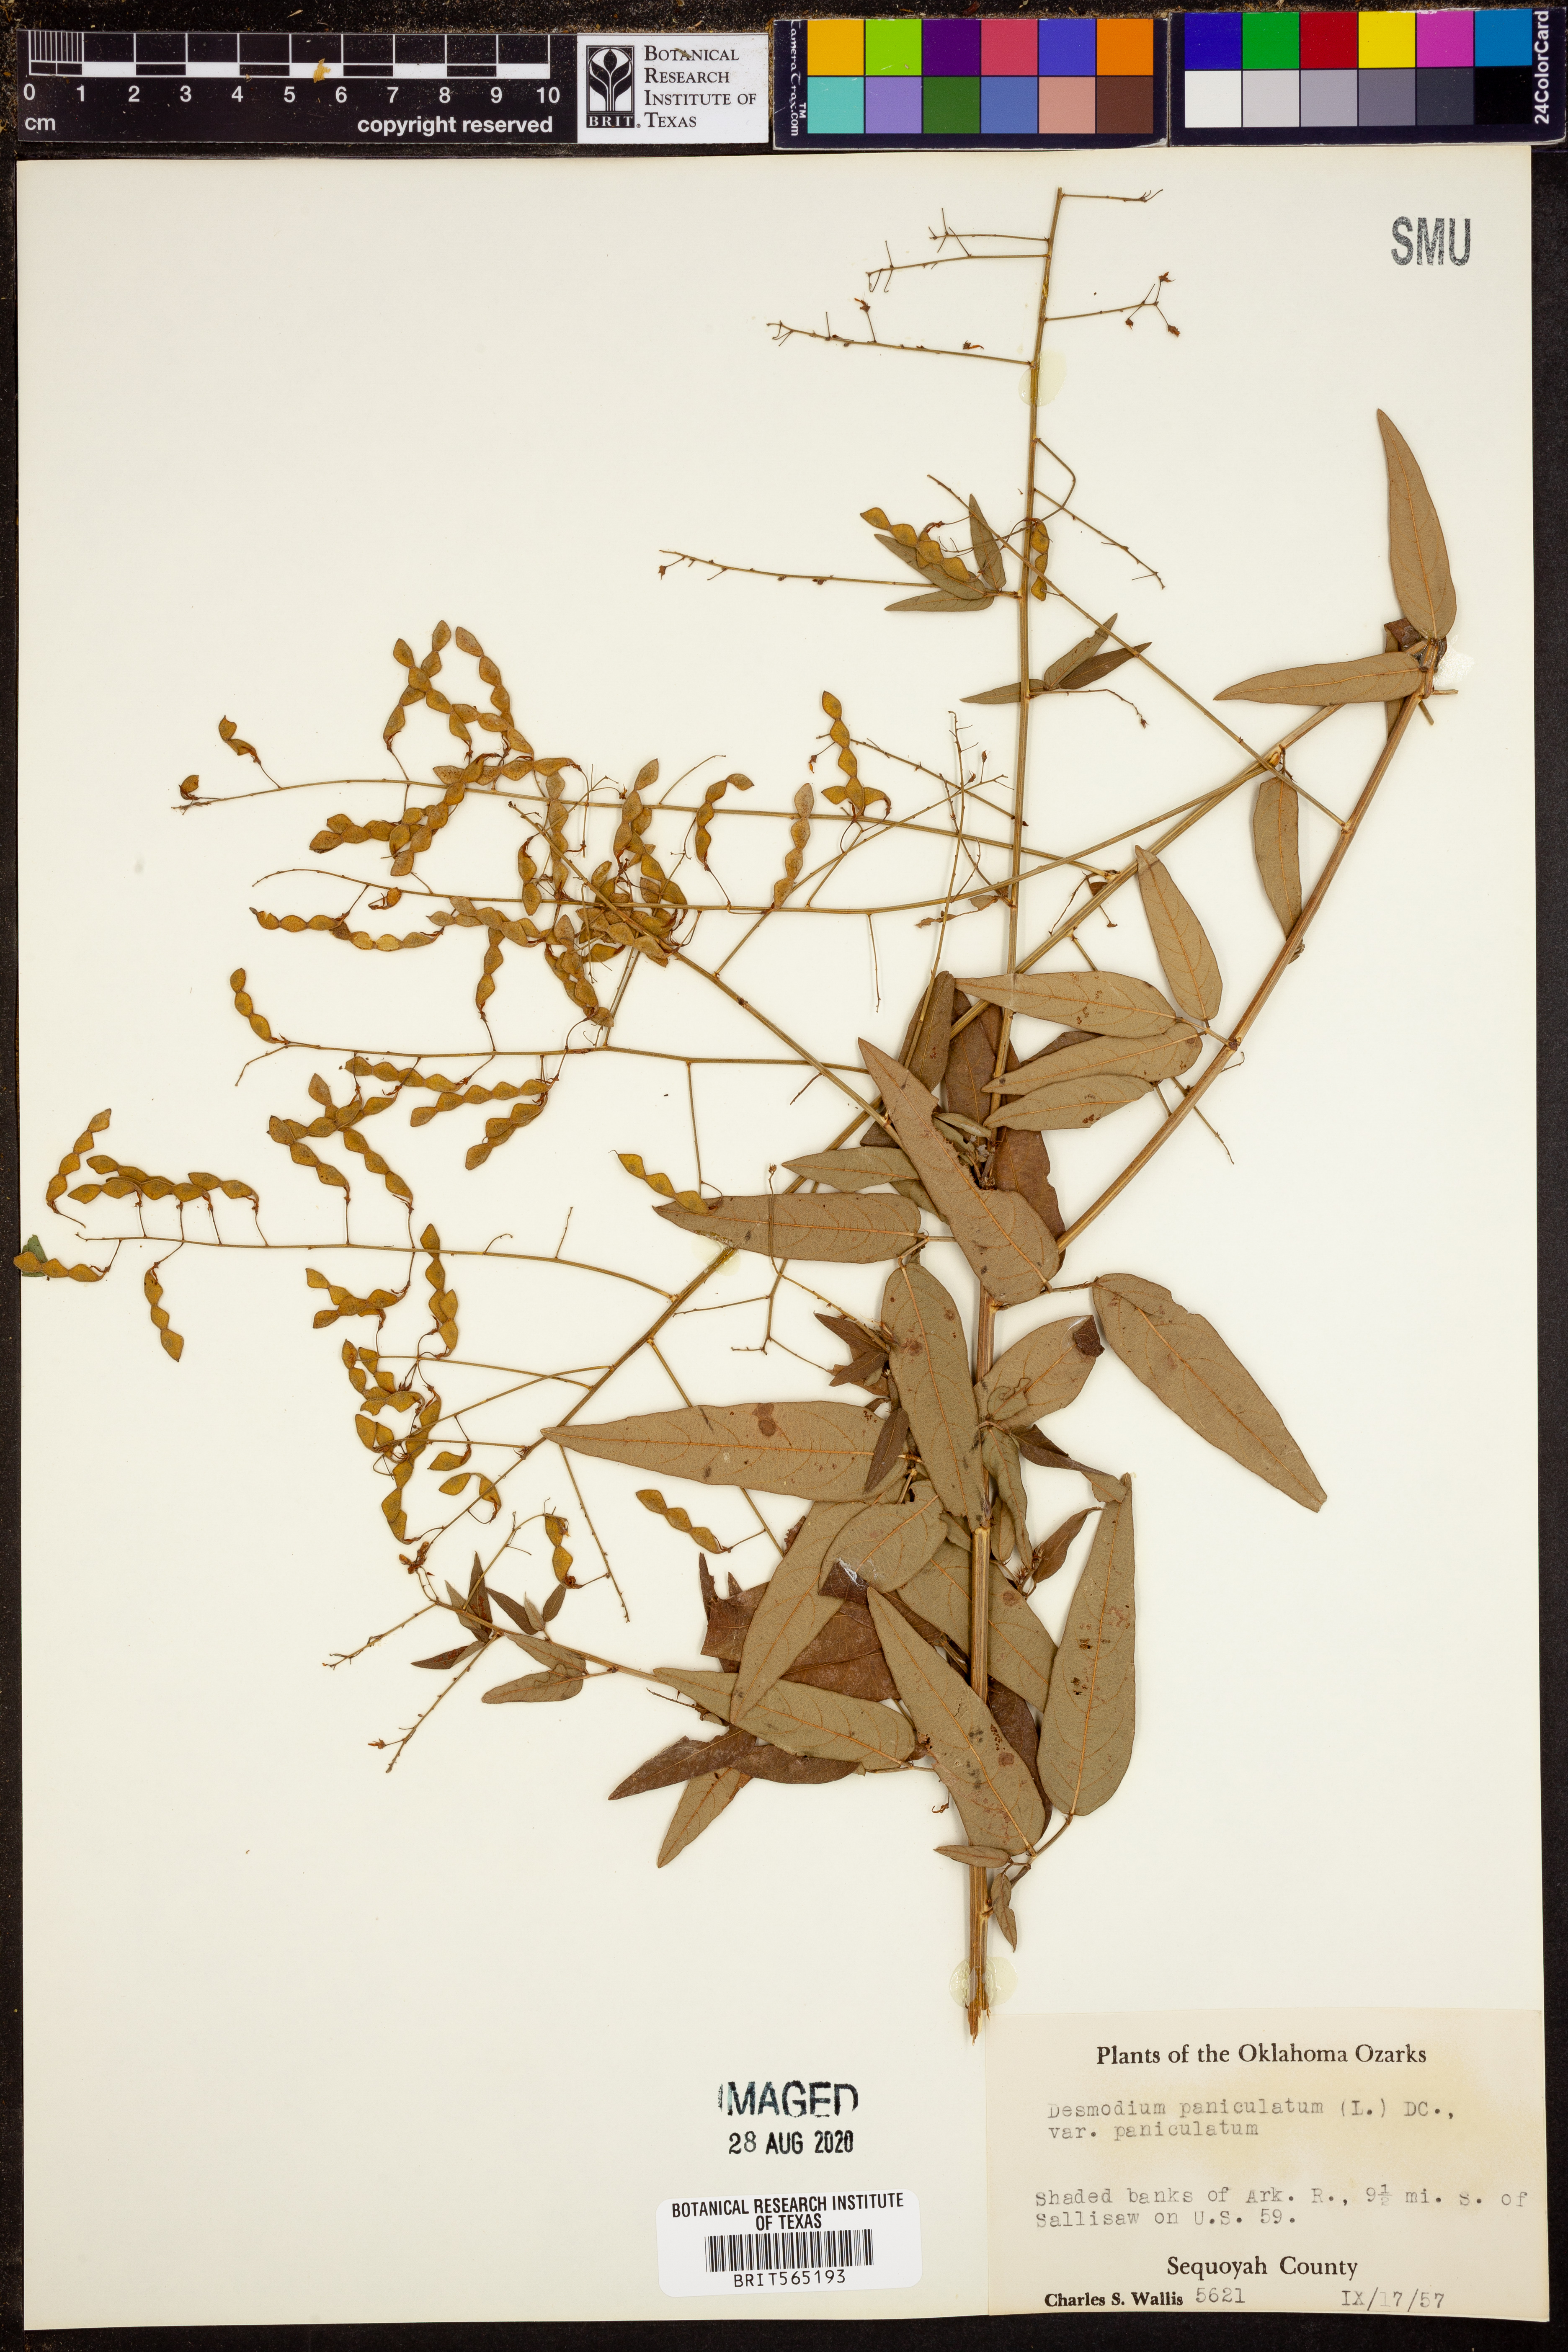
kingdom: Plantae
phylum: Tracheophyta
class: Magnoliopsida
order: Fabales
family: Fabaceae
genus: Desmodium
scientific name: Desmodium paniculatum
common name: Panicled tick-clover
